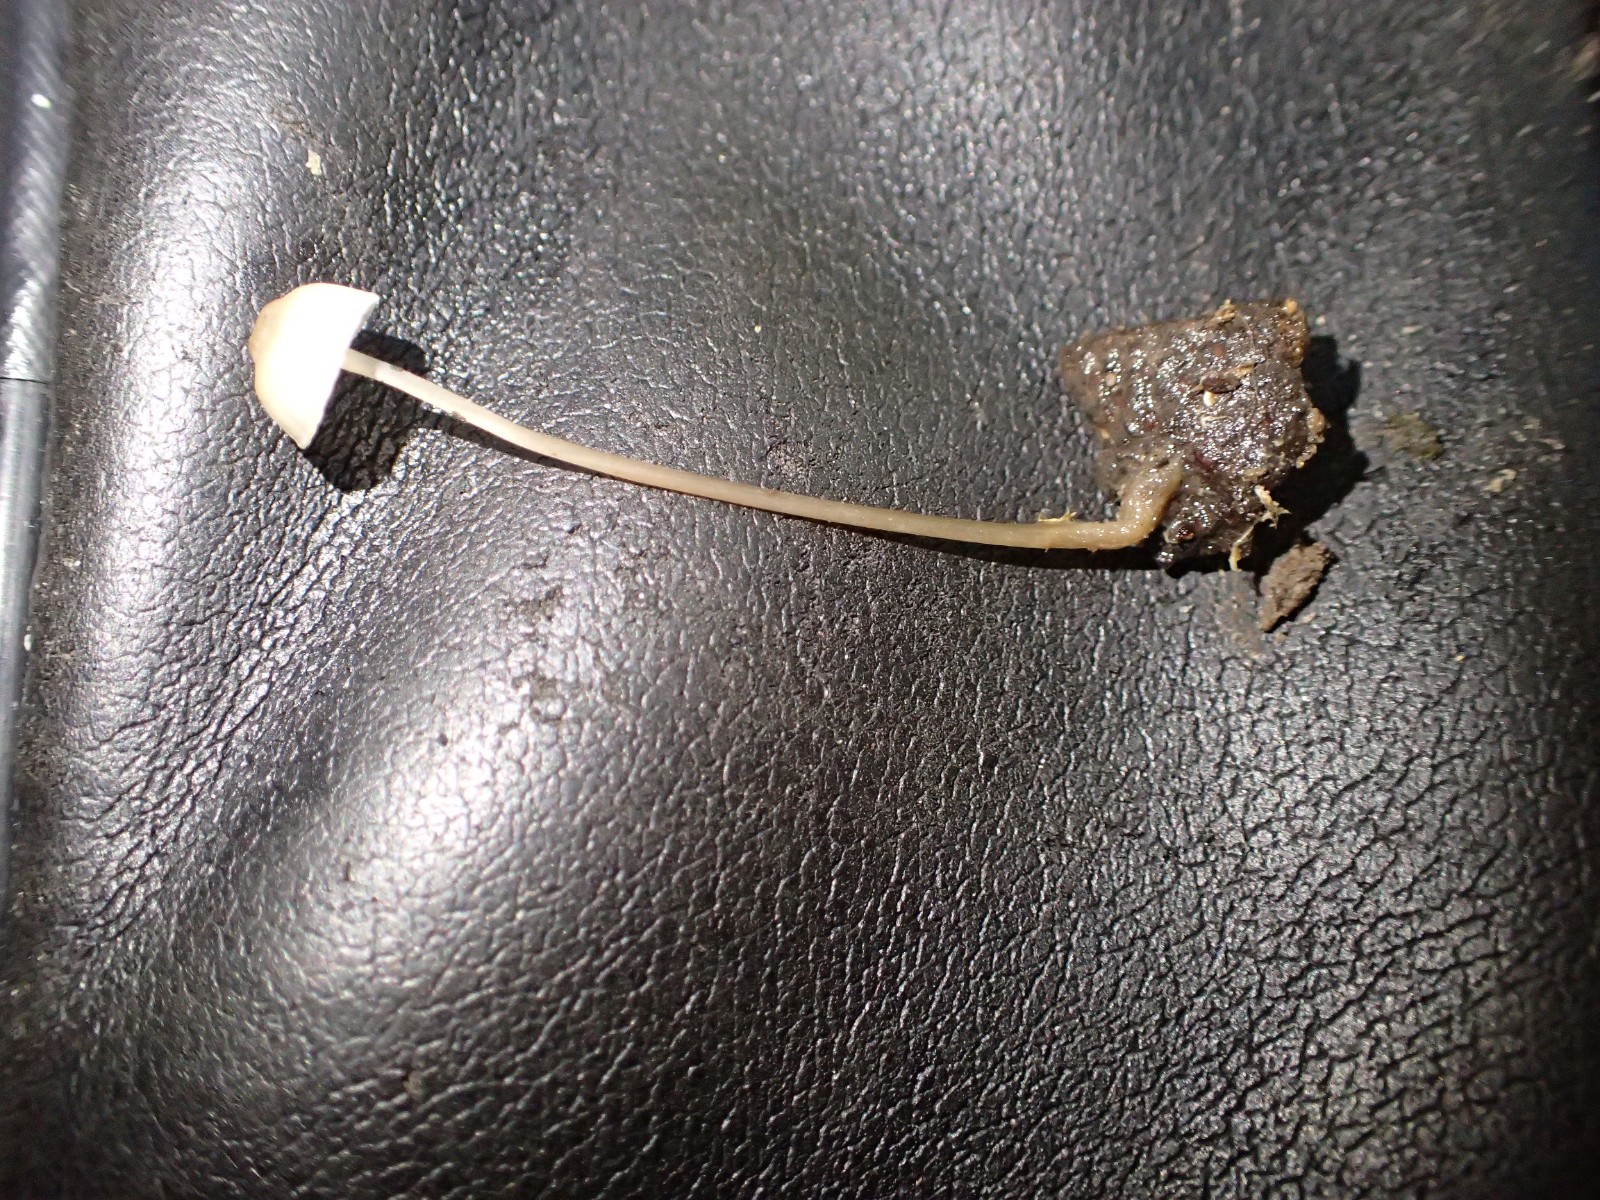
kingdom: Fungi
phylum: Basidiomycota
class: Agaricomycetes
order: Agaricales
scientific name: Agaricales
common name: champignonordenen
